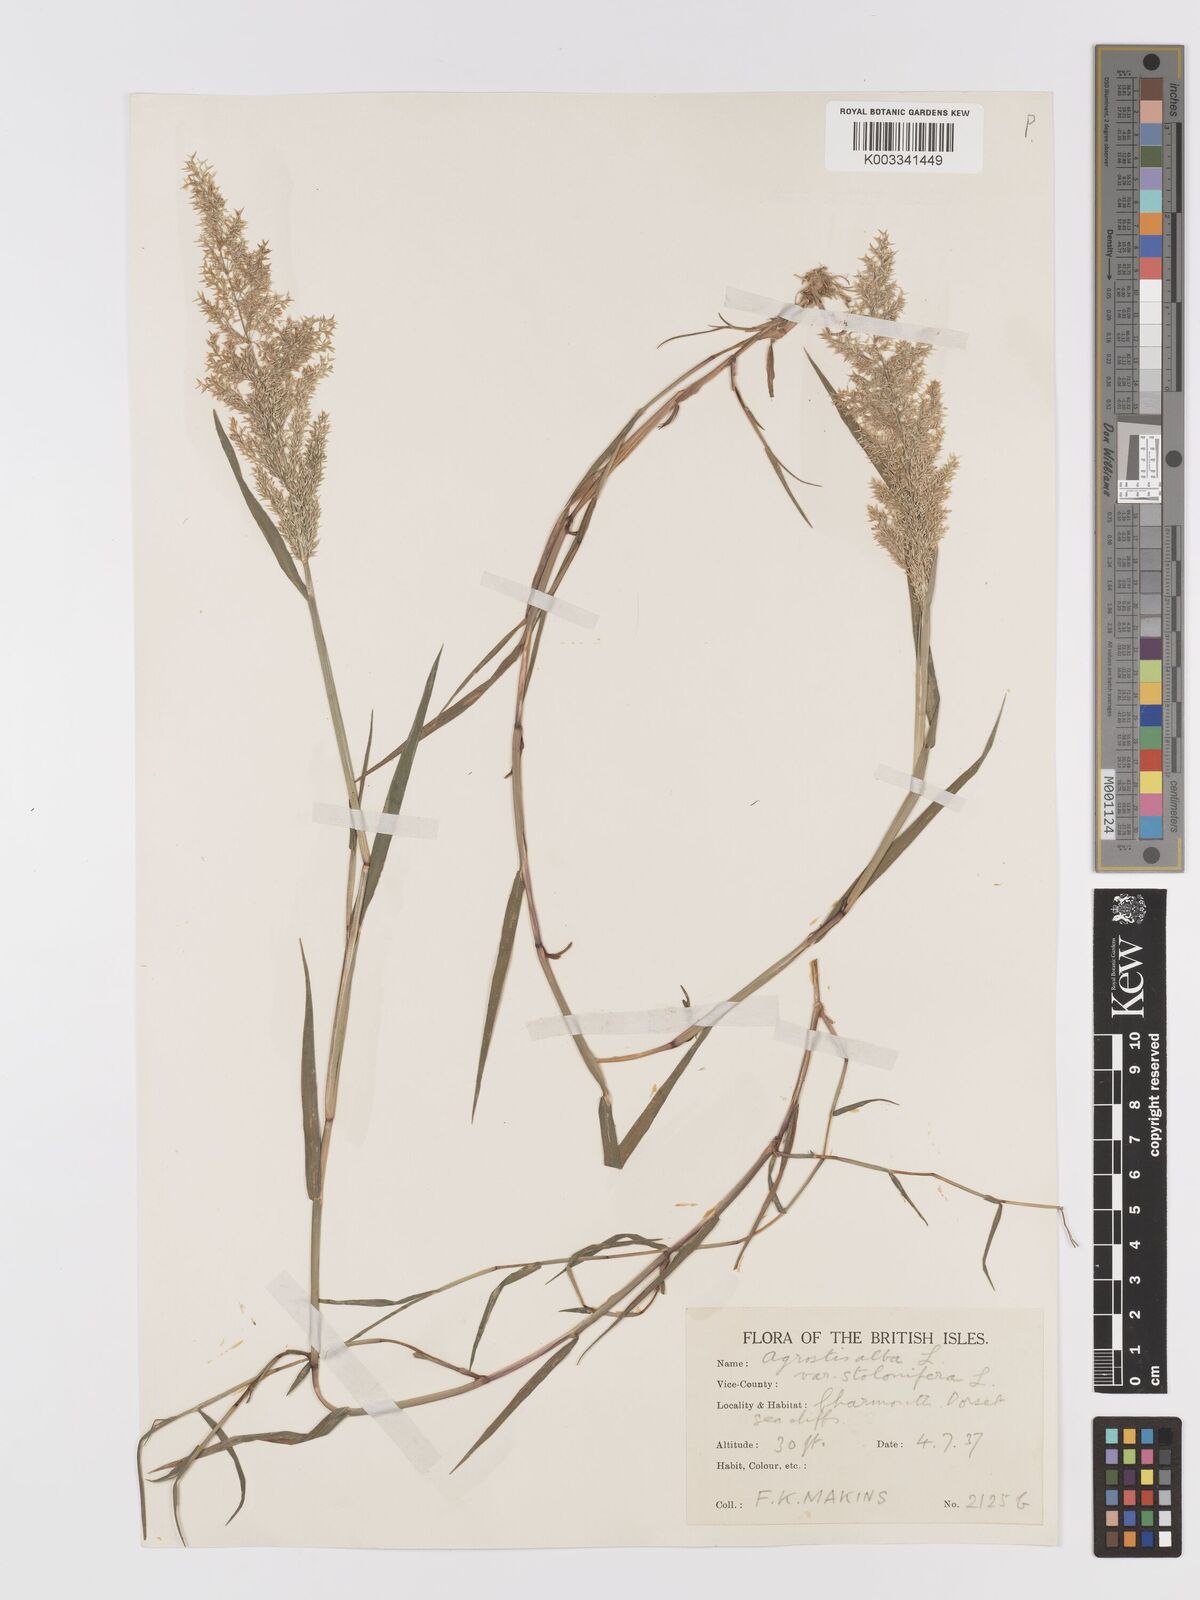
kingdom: Plantae
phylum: Tracheophyta
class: Liliopsida
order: Poales
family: Poaceae
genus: Agrostis
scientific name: Agrostis stolonifera
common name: Creeping bentgrass
